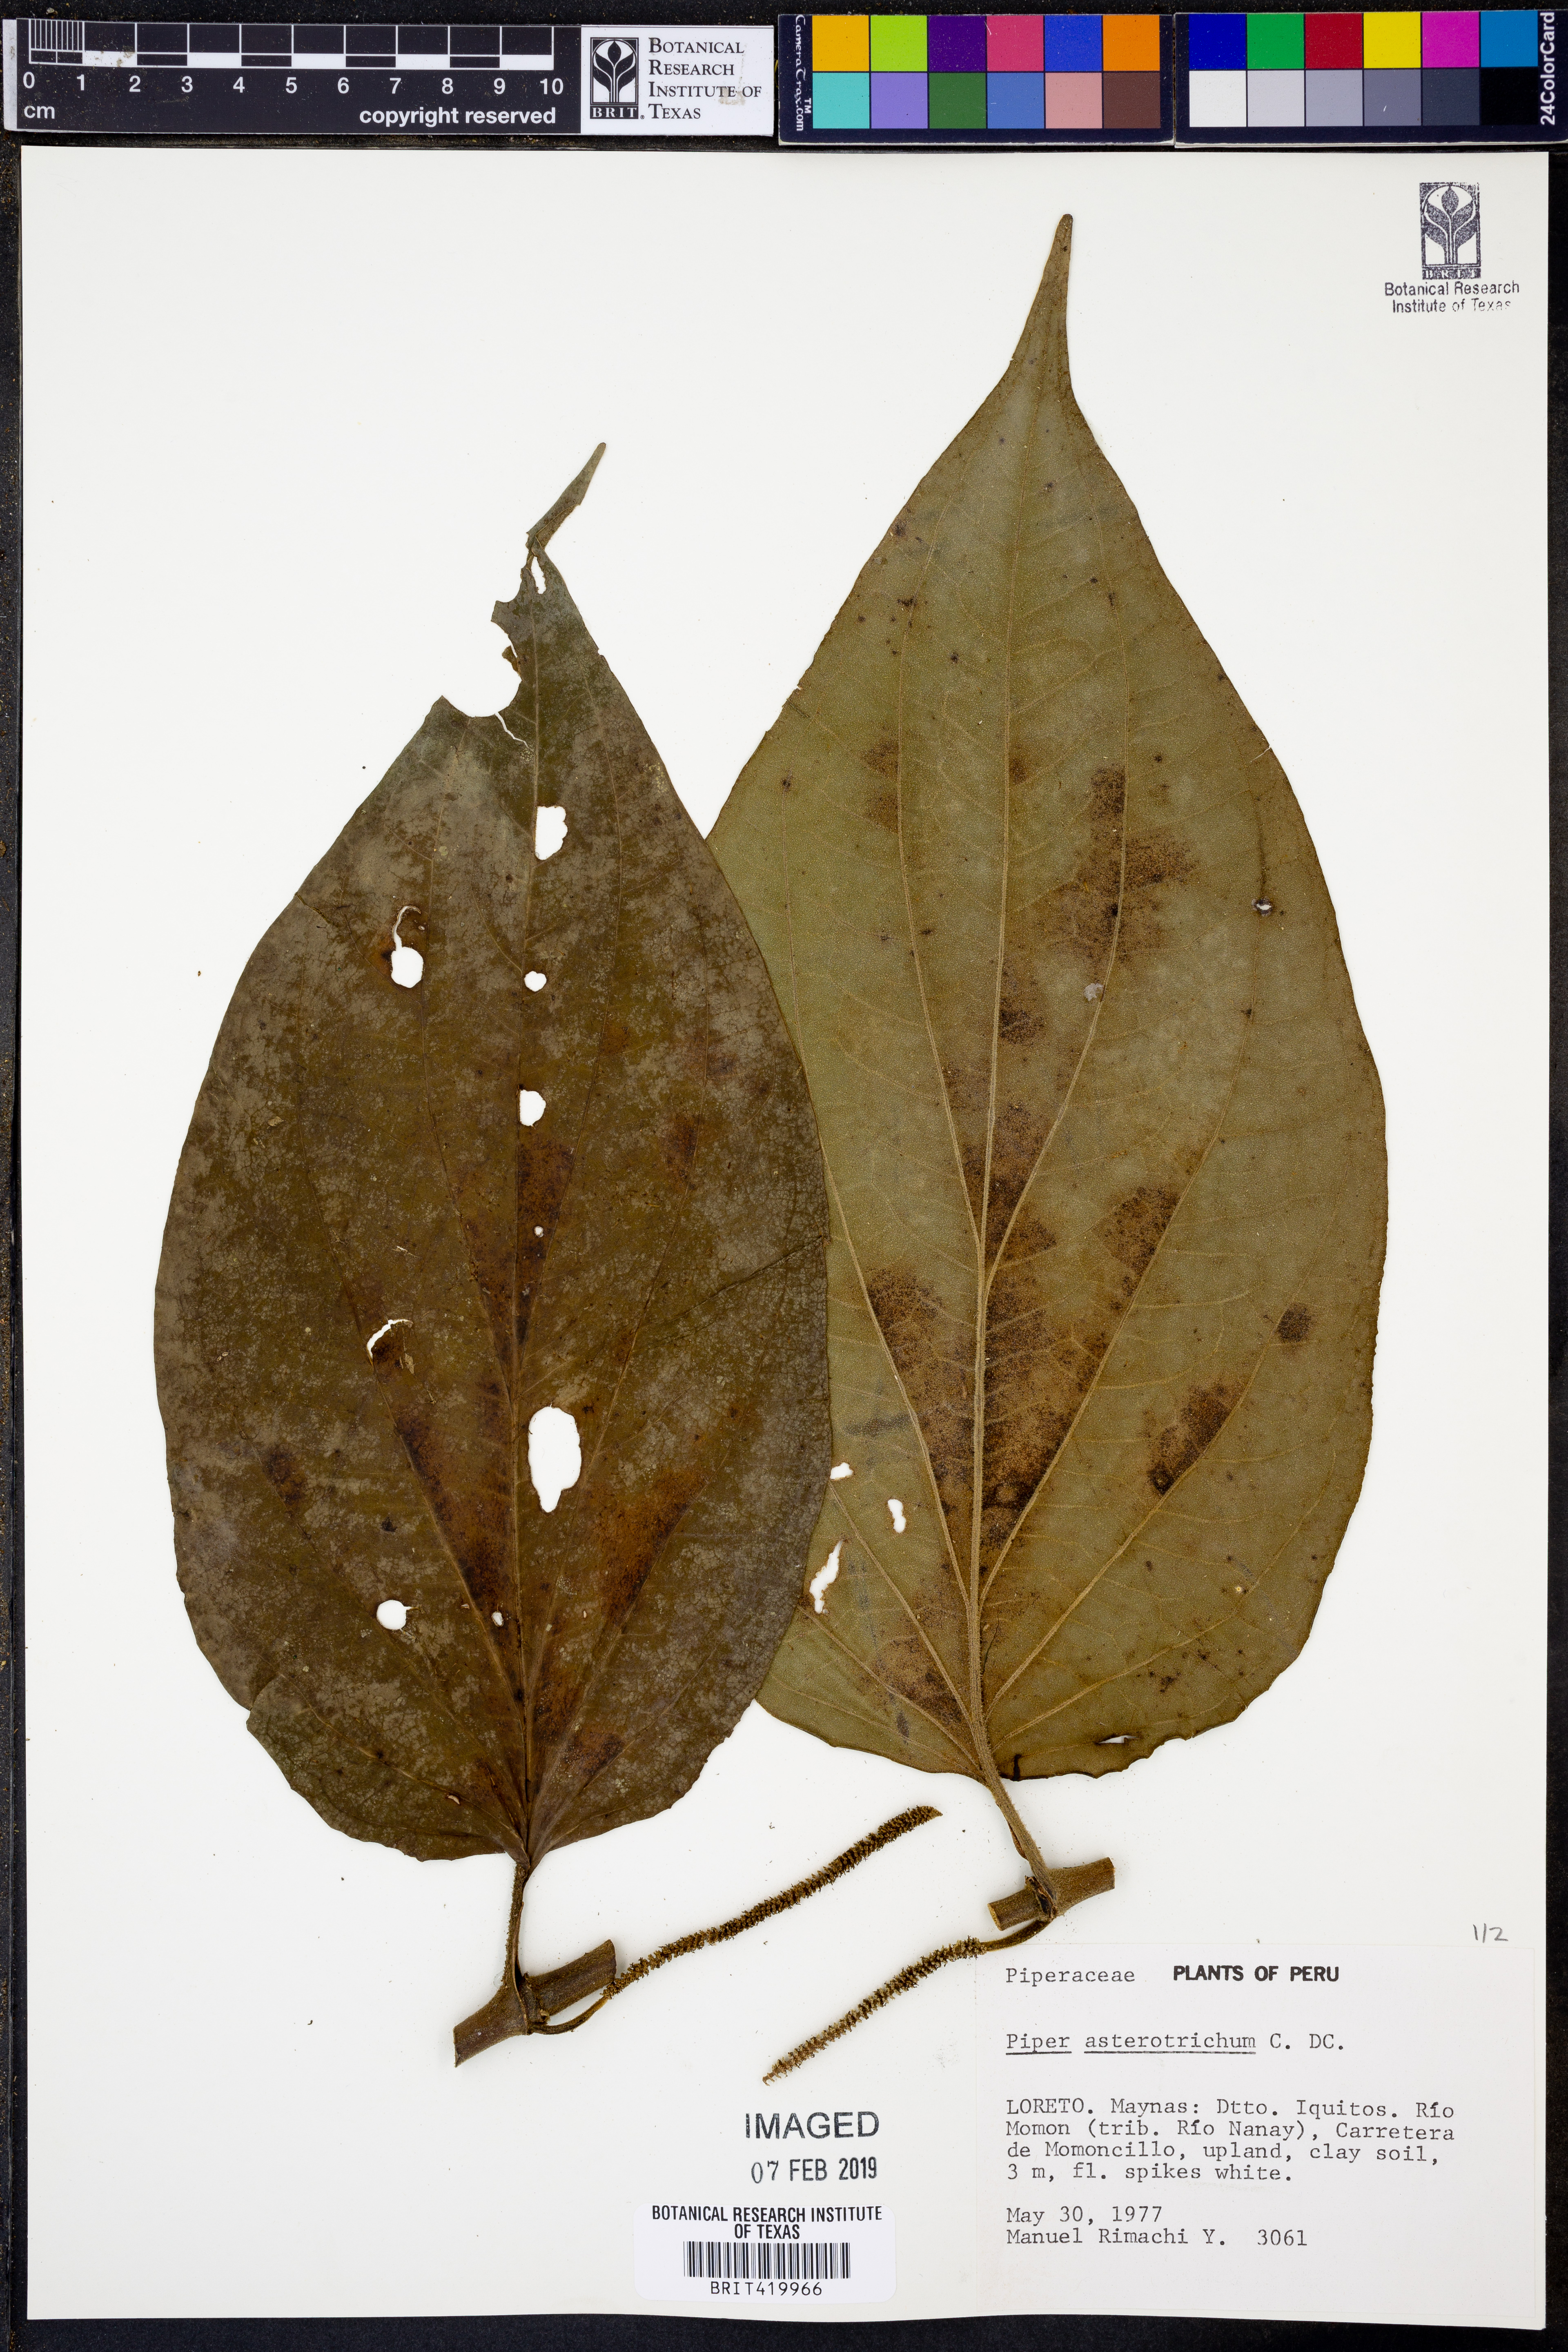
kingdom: Plantae
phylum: Tracheophyta
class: Magnoliopsida
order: Piperales
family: Piperaceae
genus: Piper
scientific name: Piper asterotrichum
